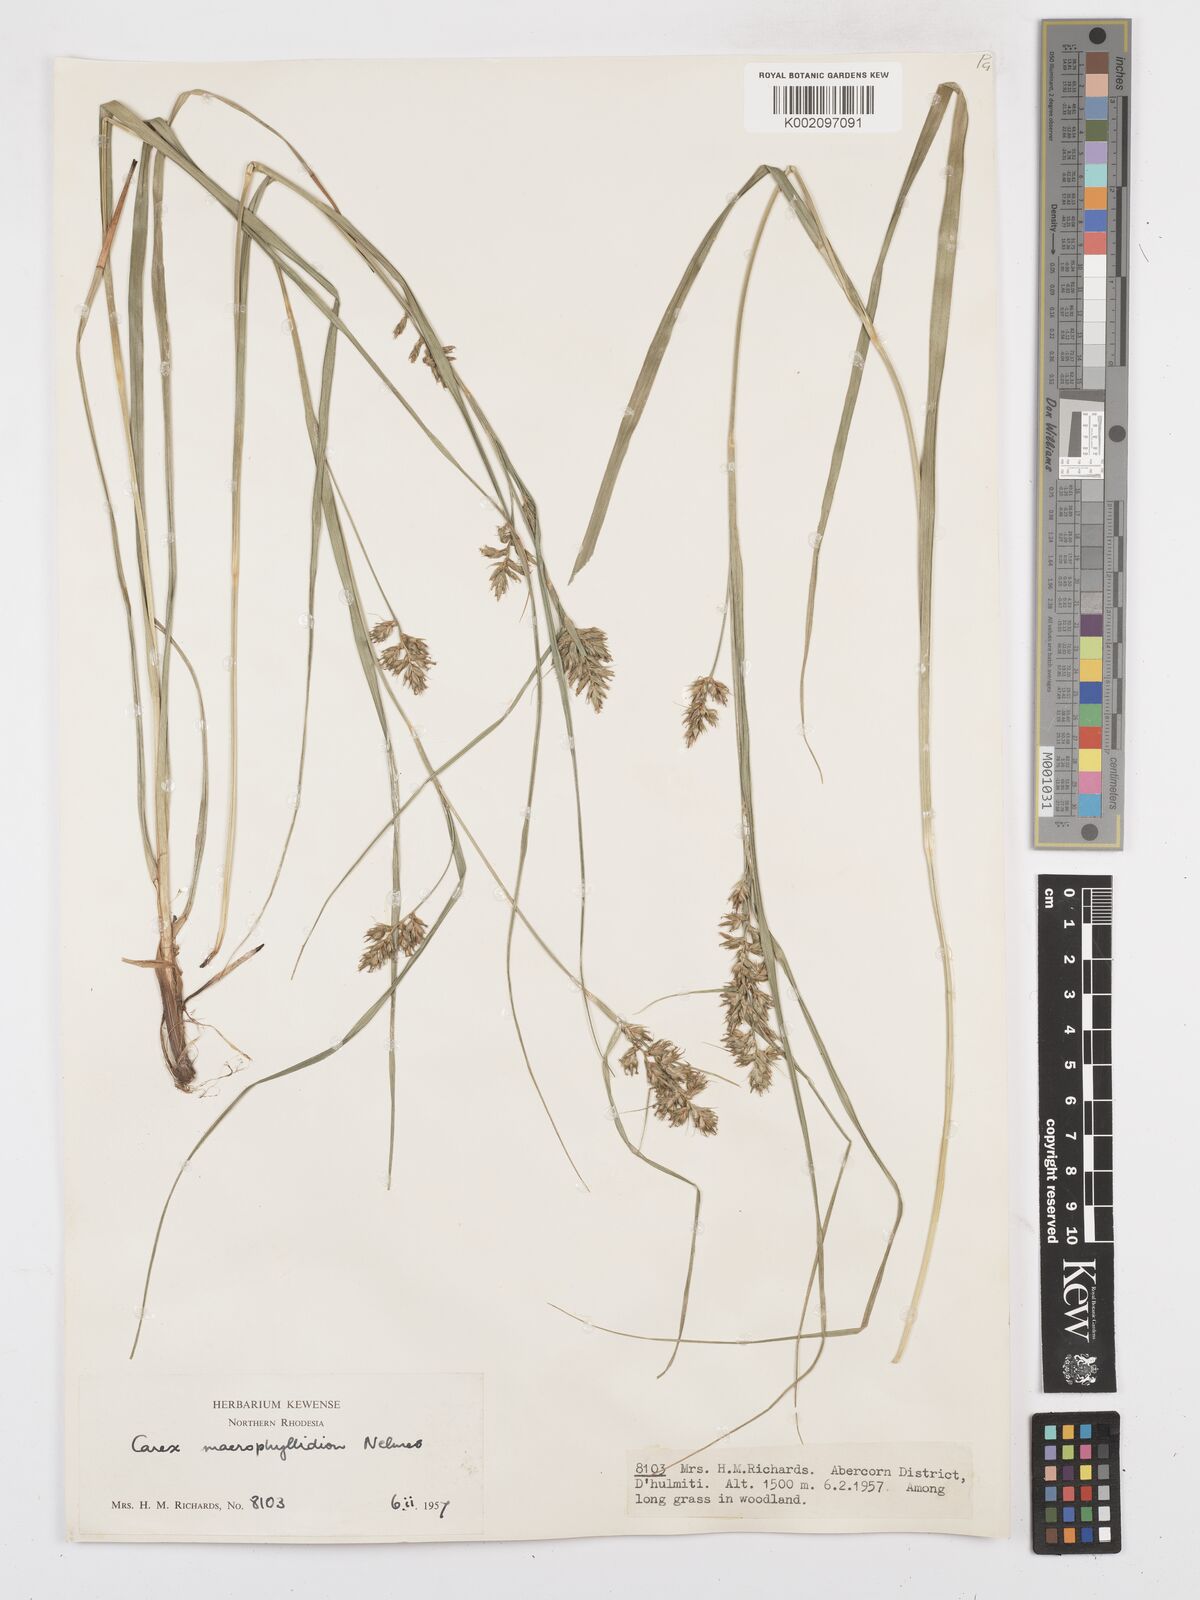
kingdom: Plantae
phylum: Tracheophyta
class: Liliopsida
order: Poales
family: Cyperaceae
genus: Carex
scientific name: Carex macrophyllidion
